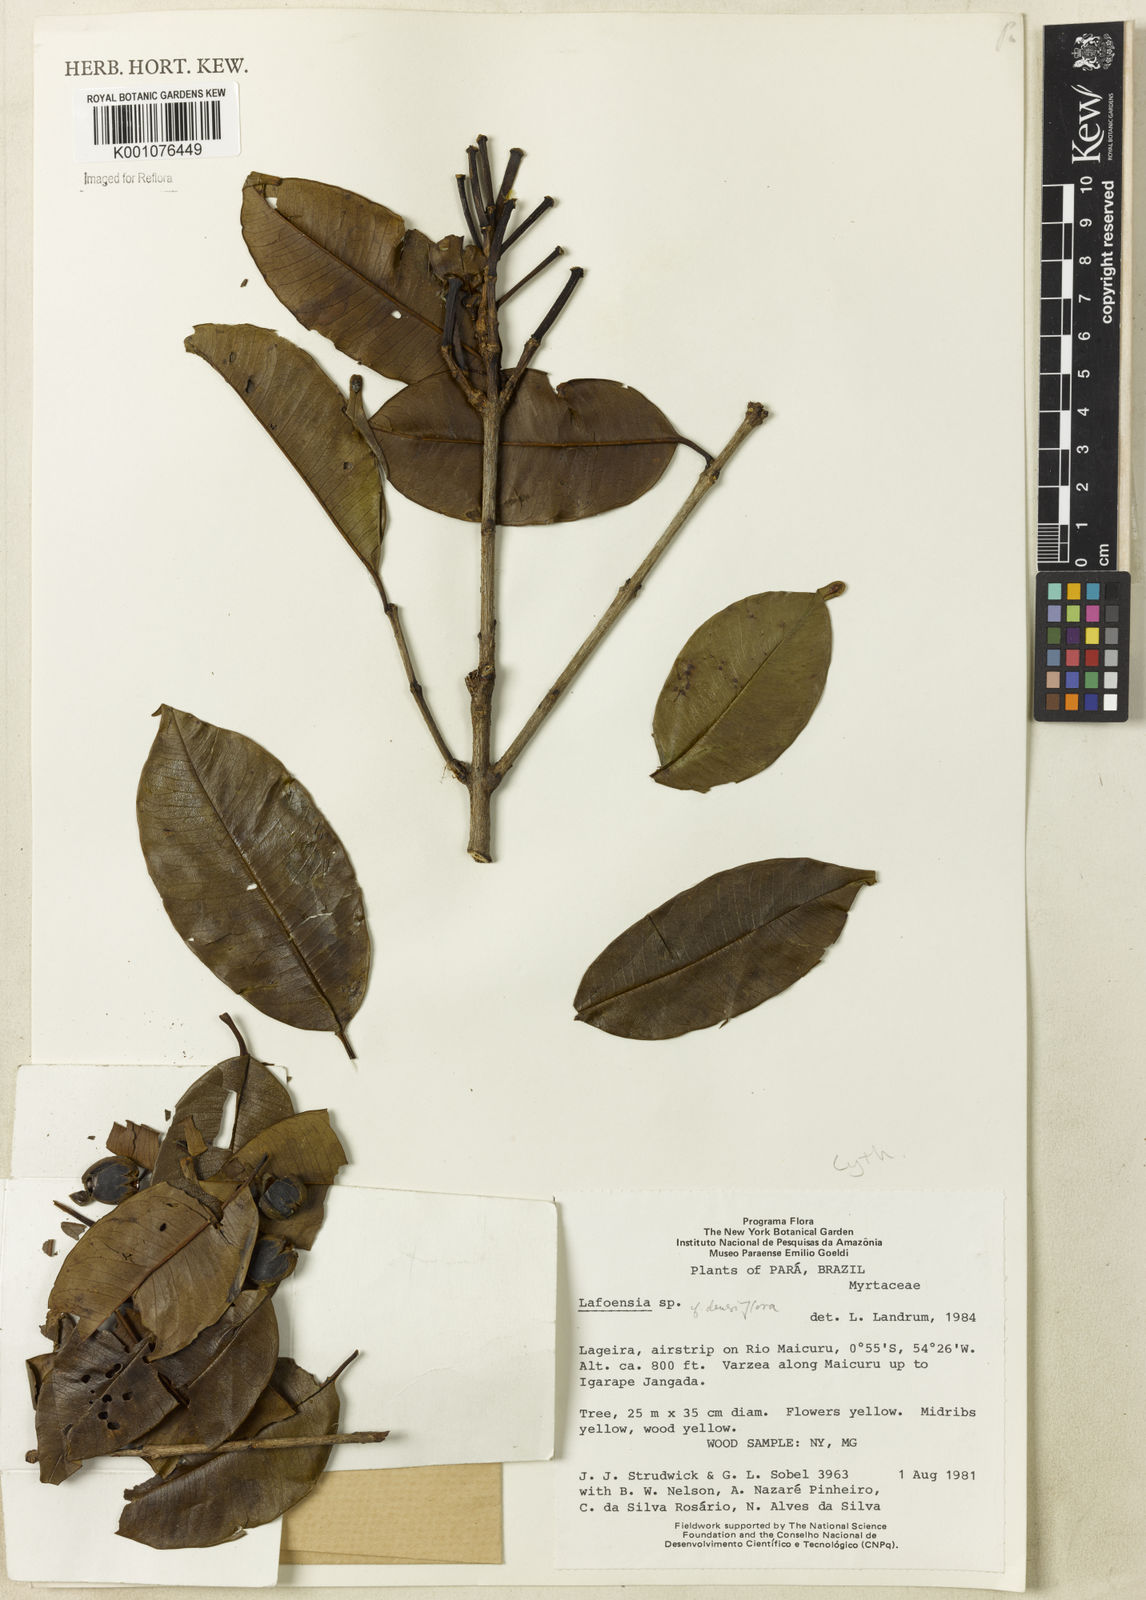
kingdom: Plantae
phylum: Tracheophyta
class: Magnoliopsida
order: Myrtales
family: Lythraceae
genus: Lafoensia
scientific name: Lafoensia vandelliana
